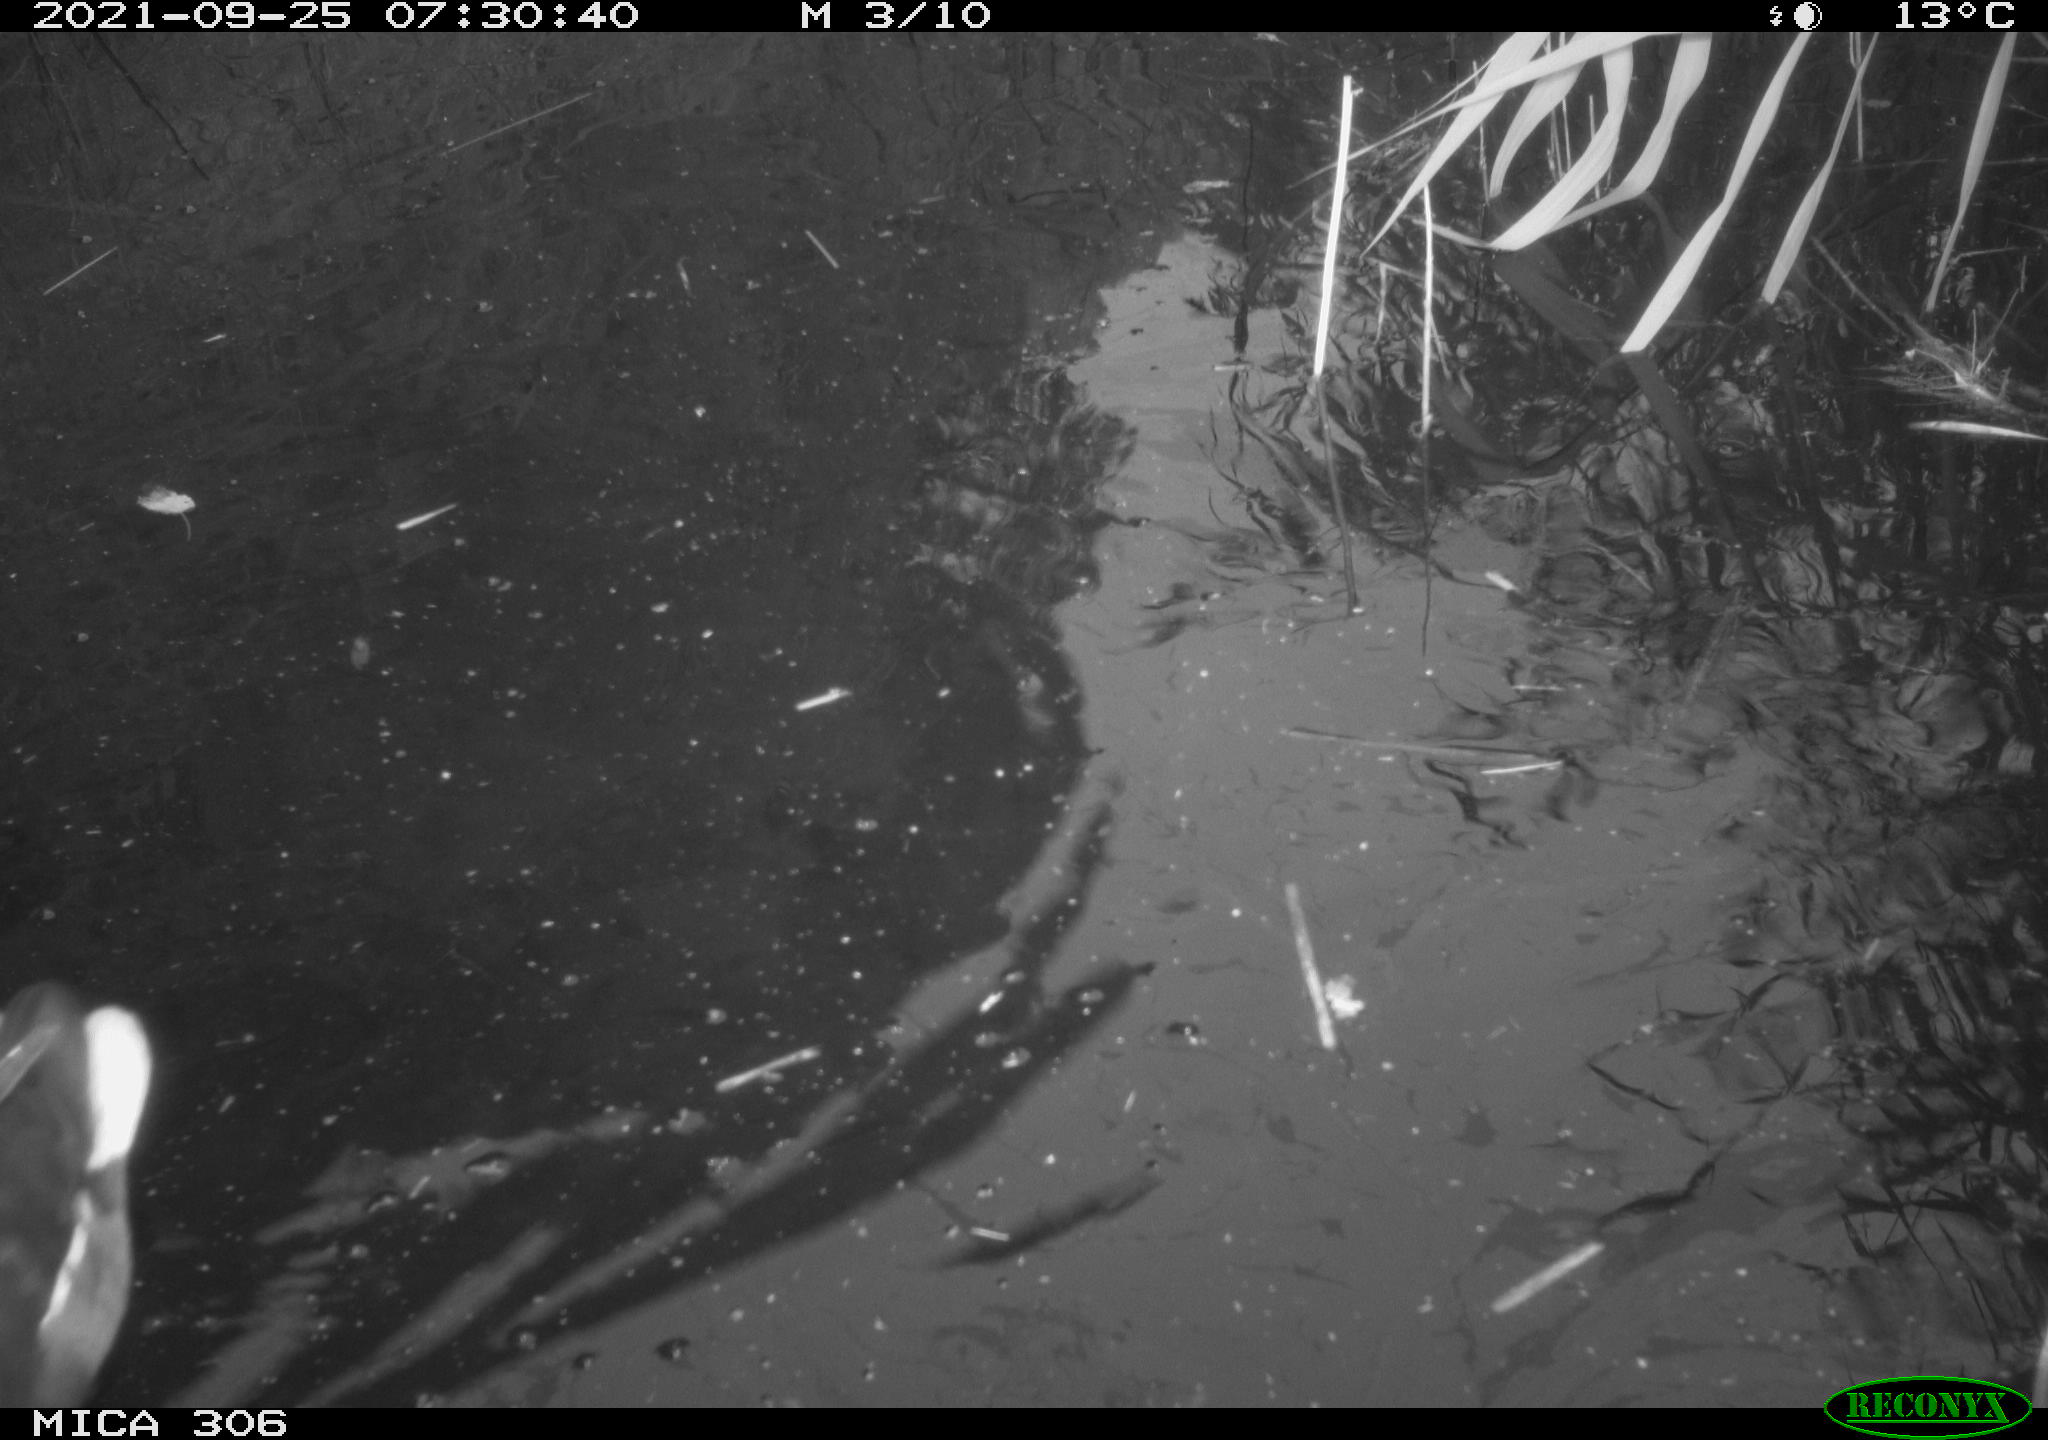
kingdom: Animalia
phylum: Chordata
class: Aves
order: Gruiformes
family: Rallidae
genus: Gallinula
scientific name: Gallinula chloropus
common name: Common moorhen
